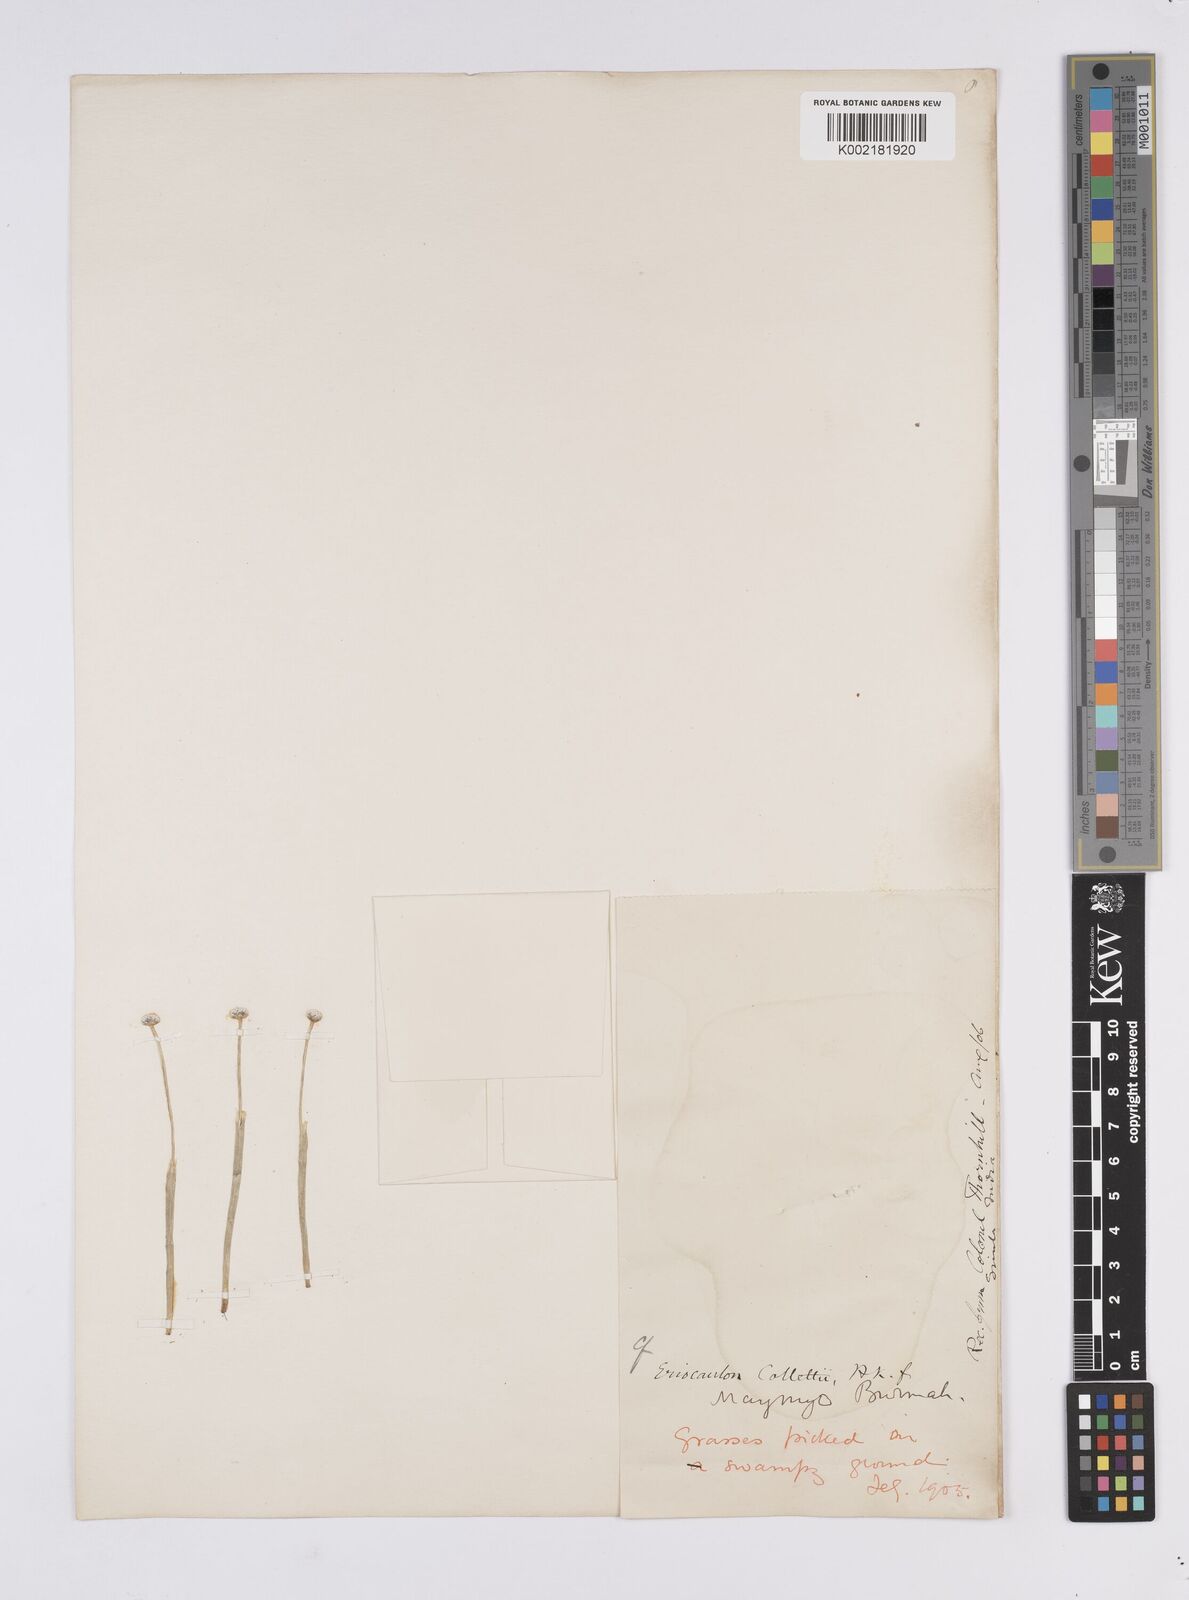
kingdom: Plantae
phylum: Tracheophyta
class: Liliopsida
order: Poales
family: Eriocaulaceae
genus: Eriocaulon
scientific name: Eriocaulon collettii
